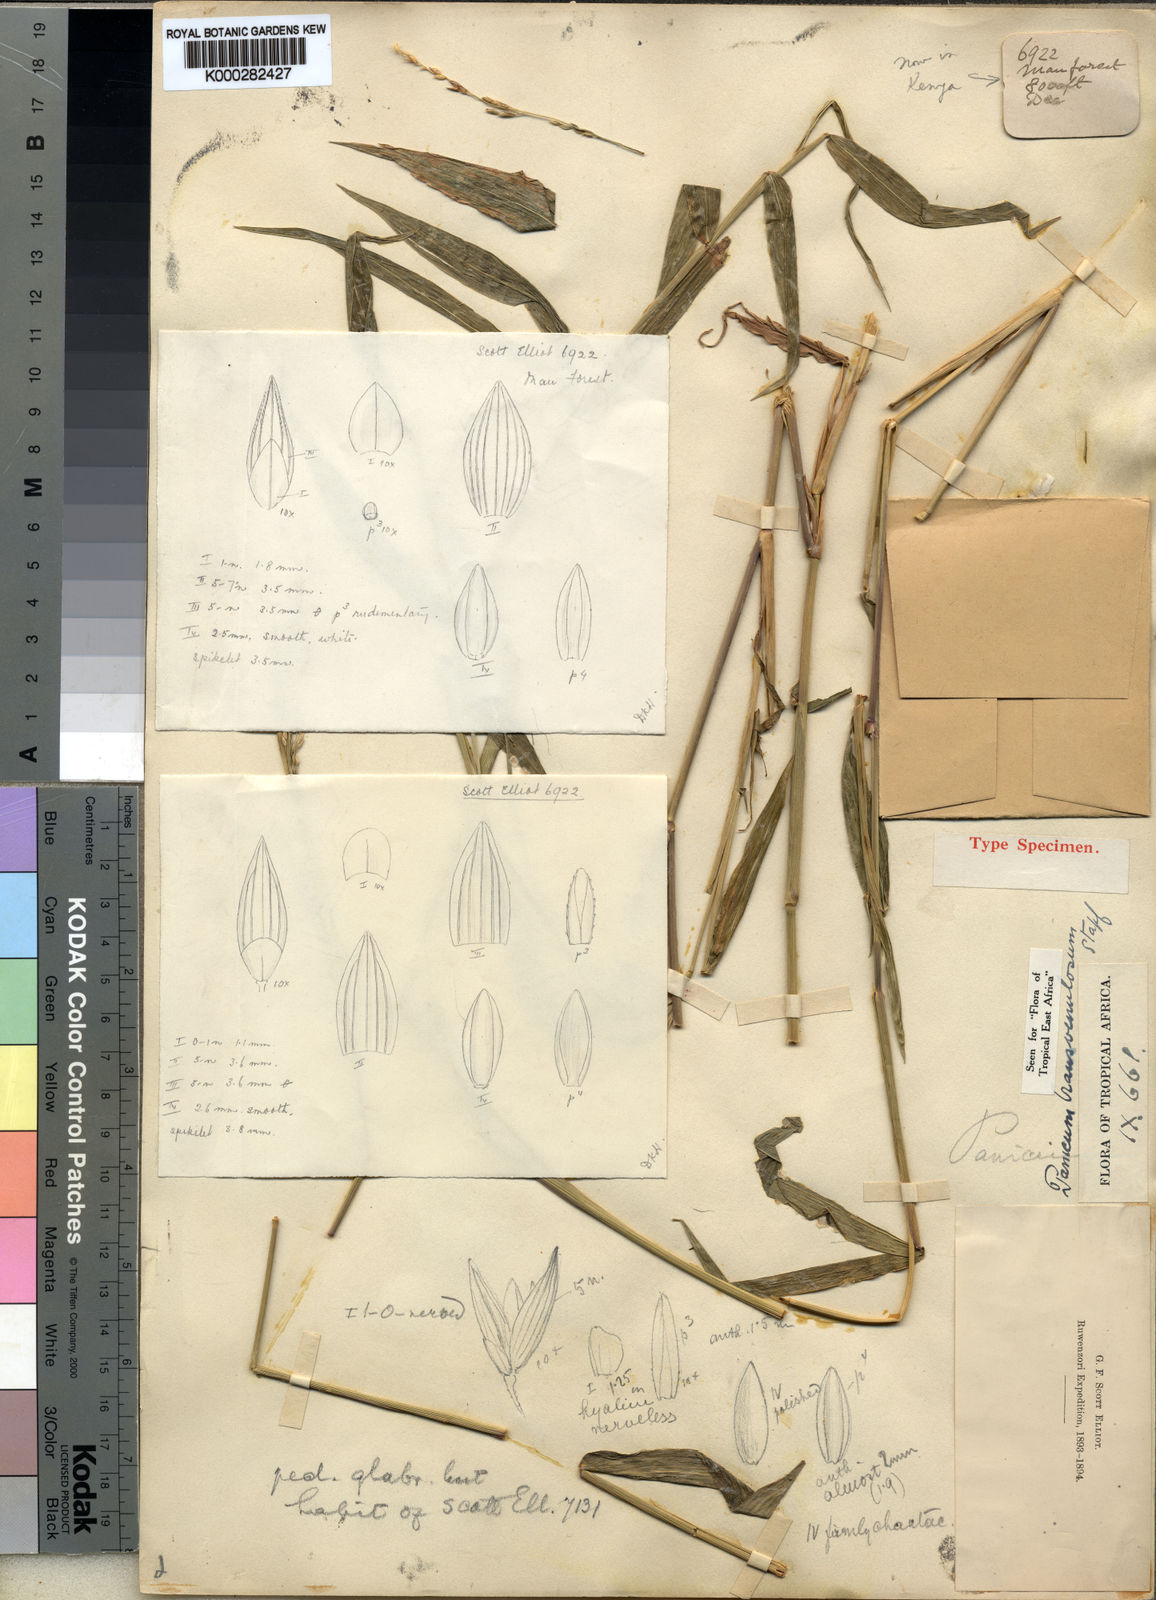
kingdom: Plantae
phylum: Tracheophyta
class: Liliopsida
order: Poales
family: Poaceae
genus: Panicum
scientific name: Panicum monticola
